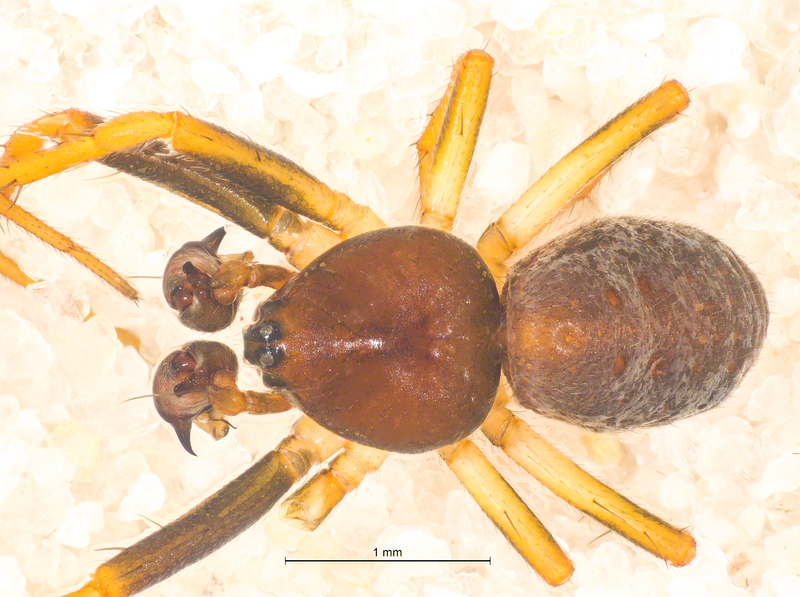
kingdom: Animalia
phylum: Arthropoda
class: Arachnida
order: Araneae
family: Araneidae
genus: Hypsosinga
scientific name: Hypsosinga sanguinea
